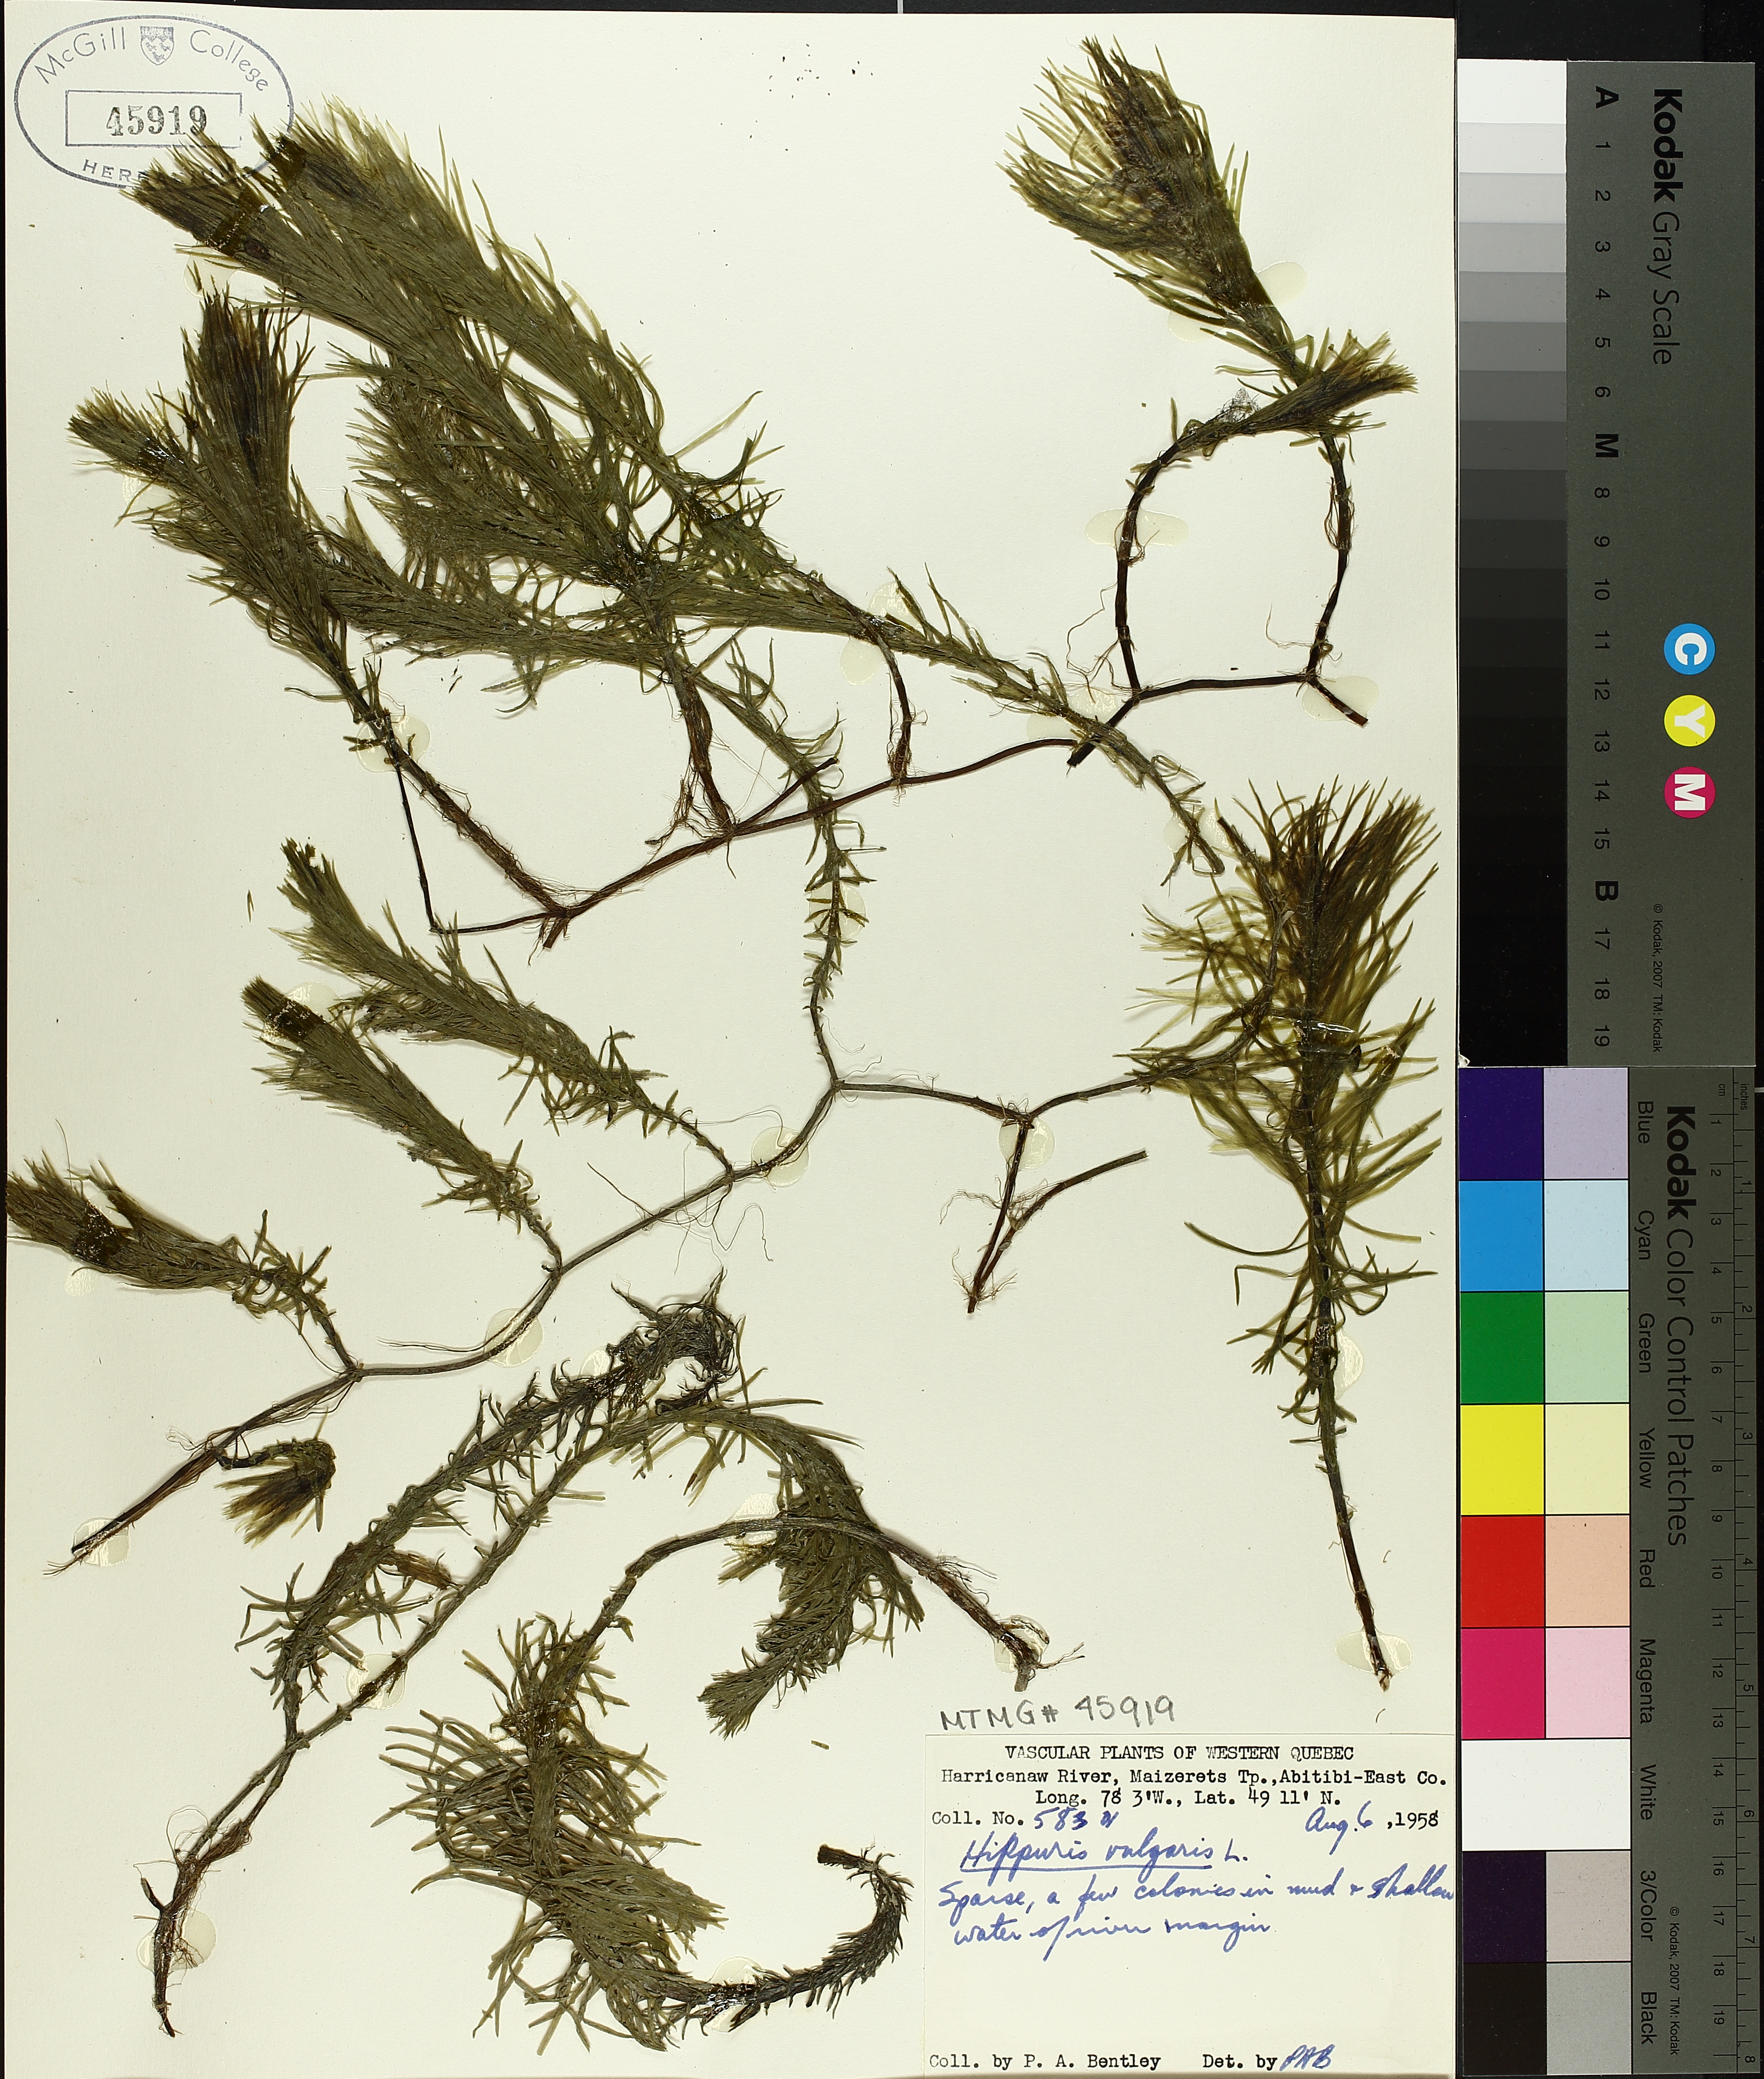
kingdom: Plantae
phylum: Tracheophyta
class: Magnoliopsida
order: Lamiales
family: Plantaginaceae
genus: Hippuris
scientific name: Hippuris vulgaris
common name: Mare's-tail
